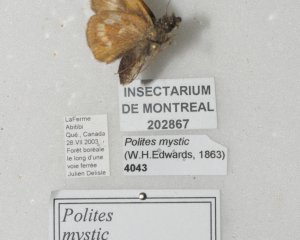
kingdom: Animalia
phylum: Arthropoda
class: Insecta
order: Lepidoptera
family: Hesperiidae
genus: Polites
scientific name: Polites
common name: Long Dash Skipper
